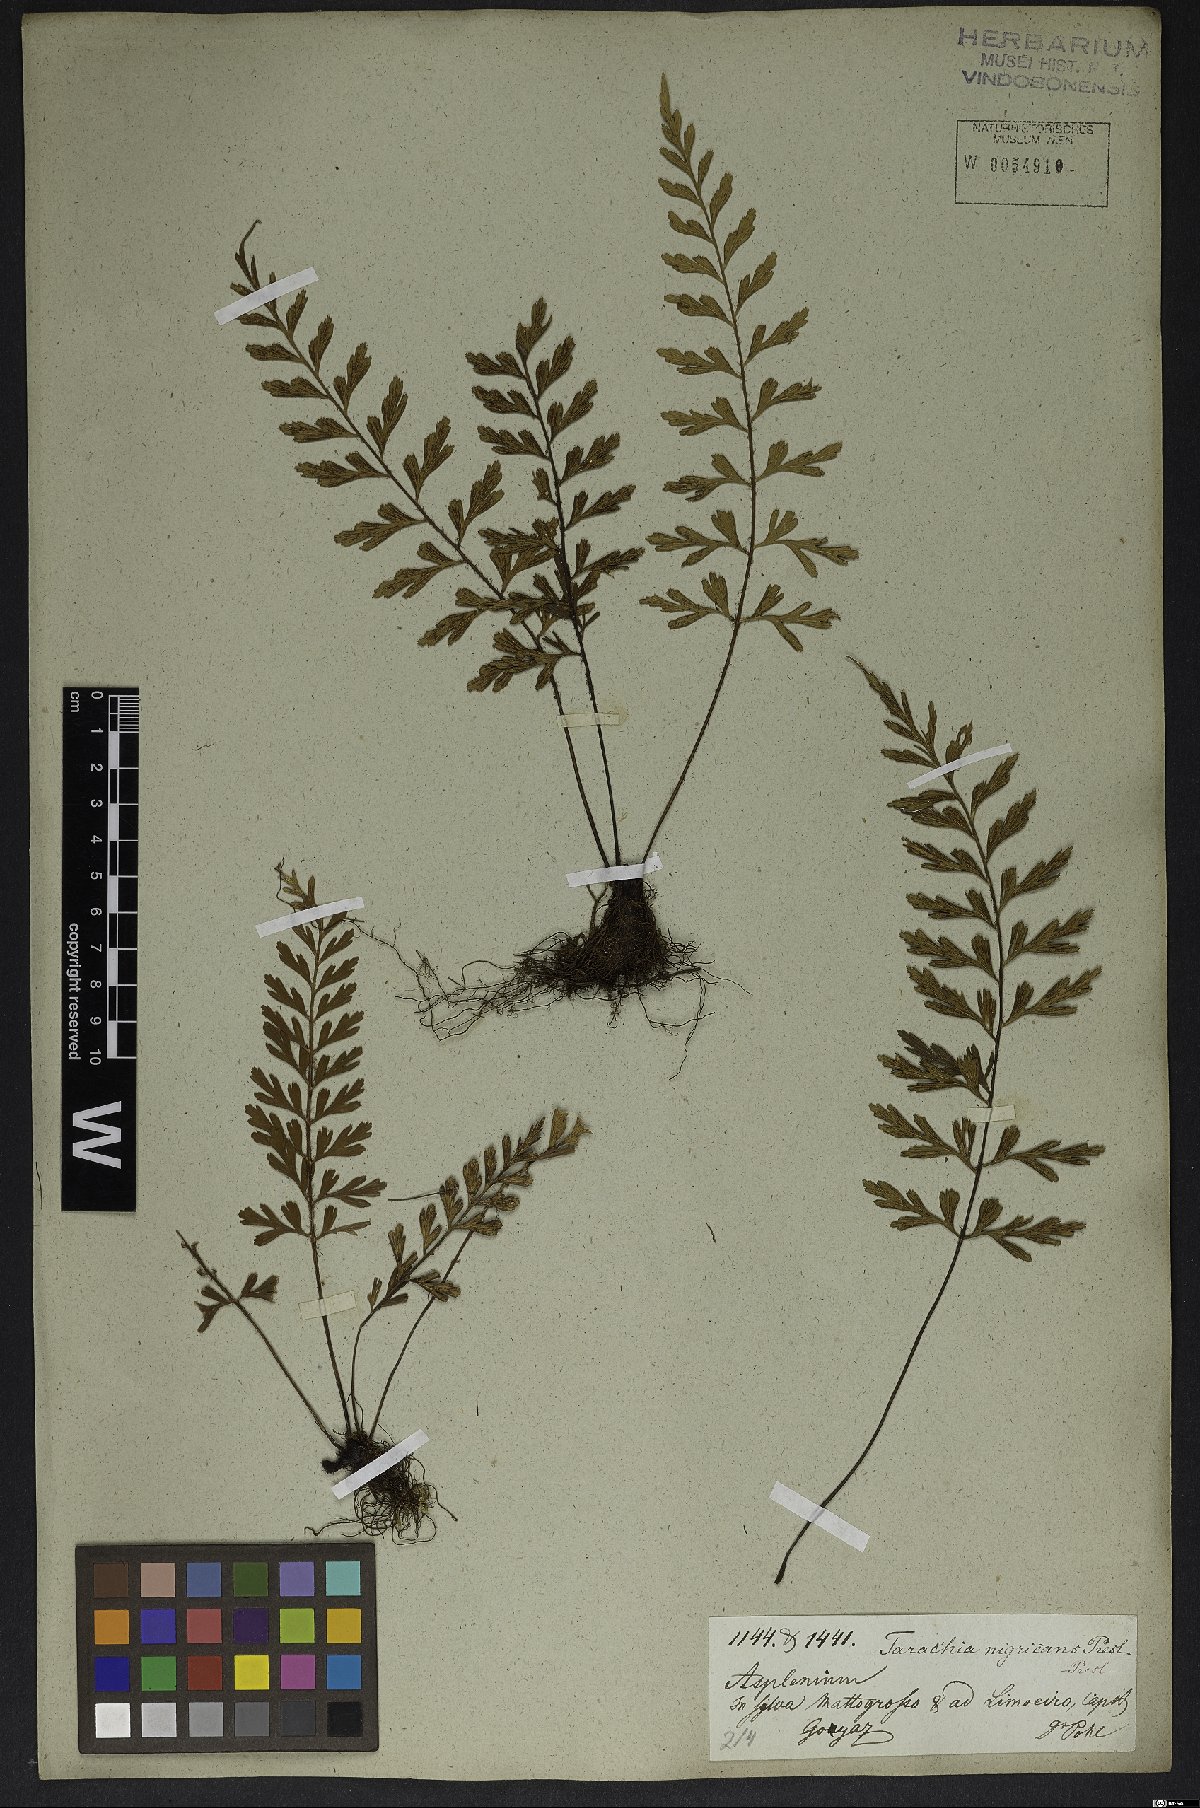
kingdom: Plantae
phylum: Tracheophyta
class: Polypodiopsida
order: Polypodiales
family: Aspleniaceae
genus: Asplenium
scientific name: Asplenium praemorsum
